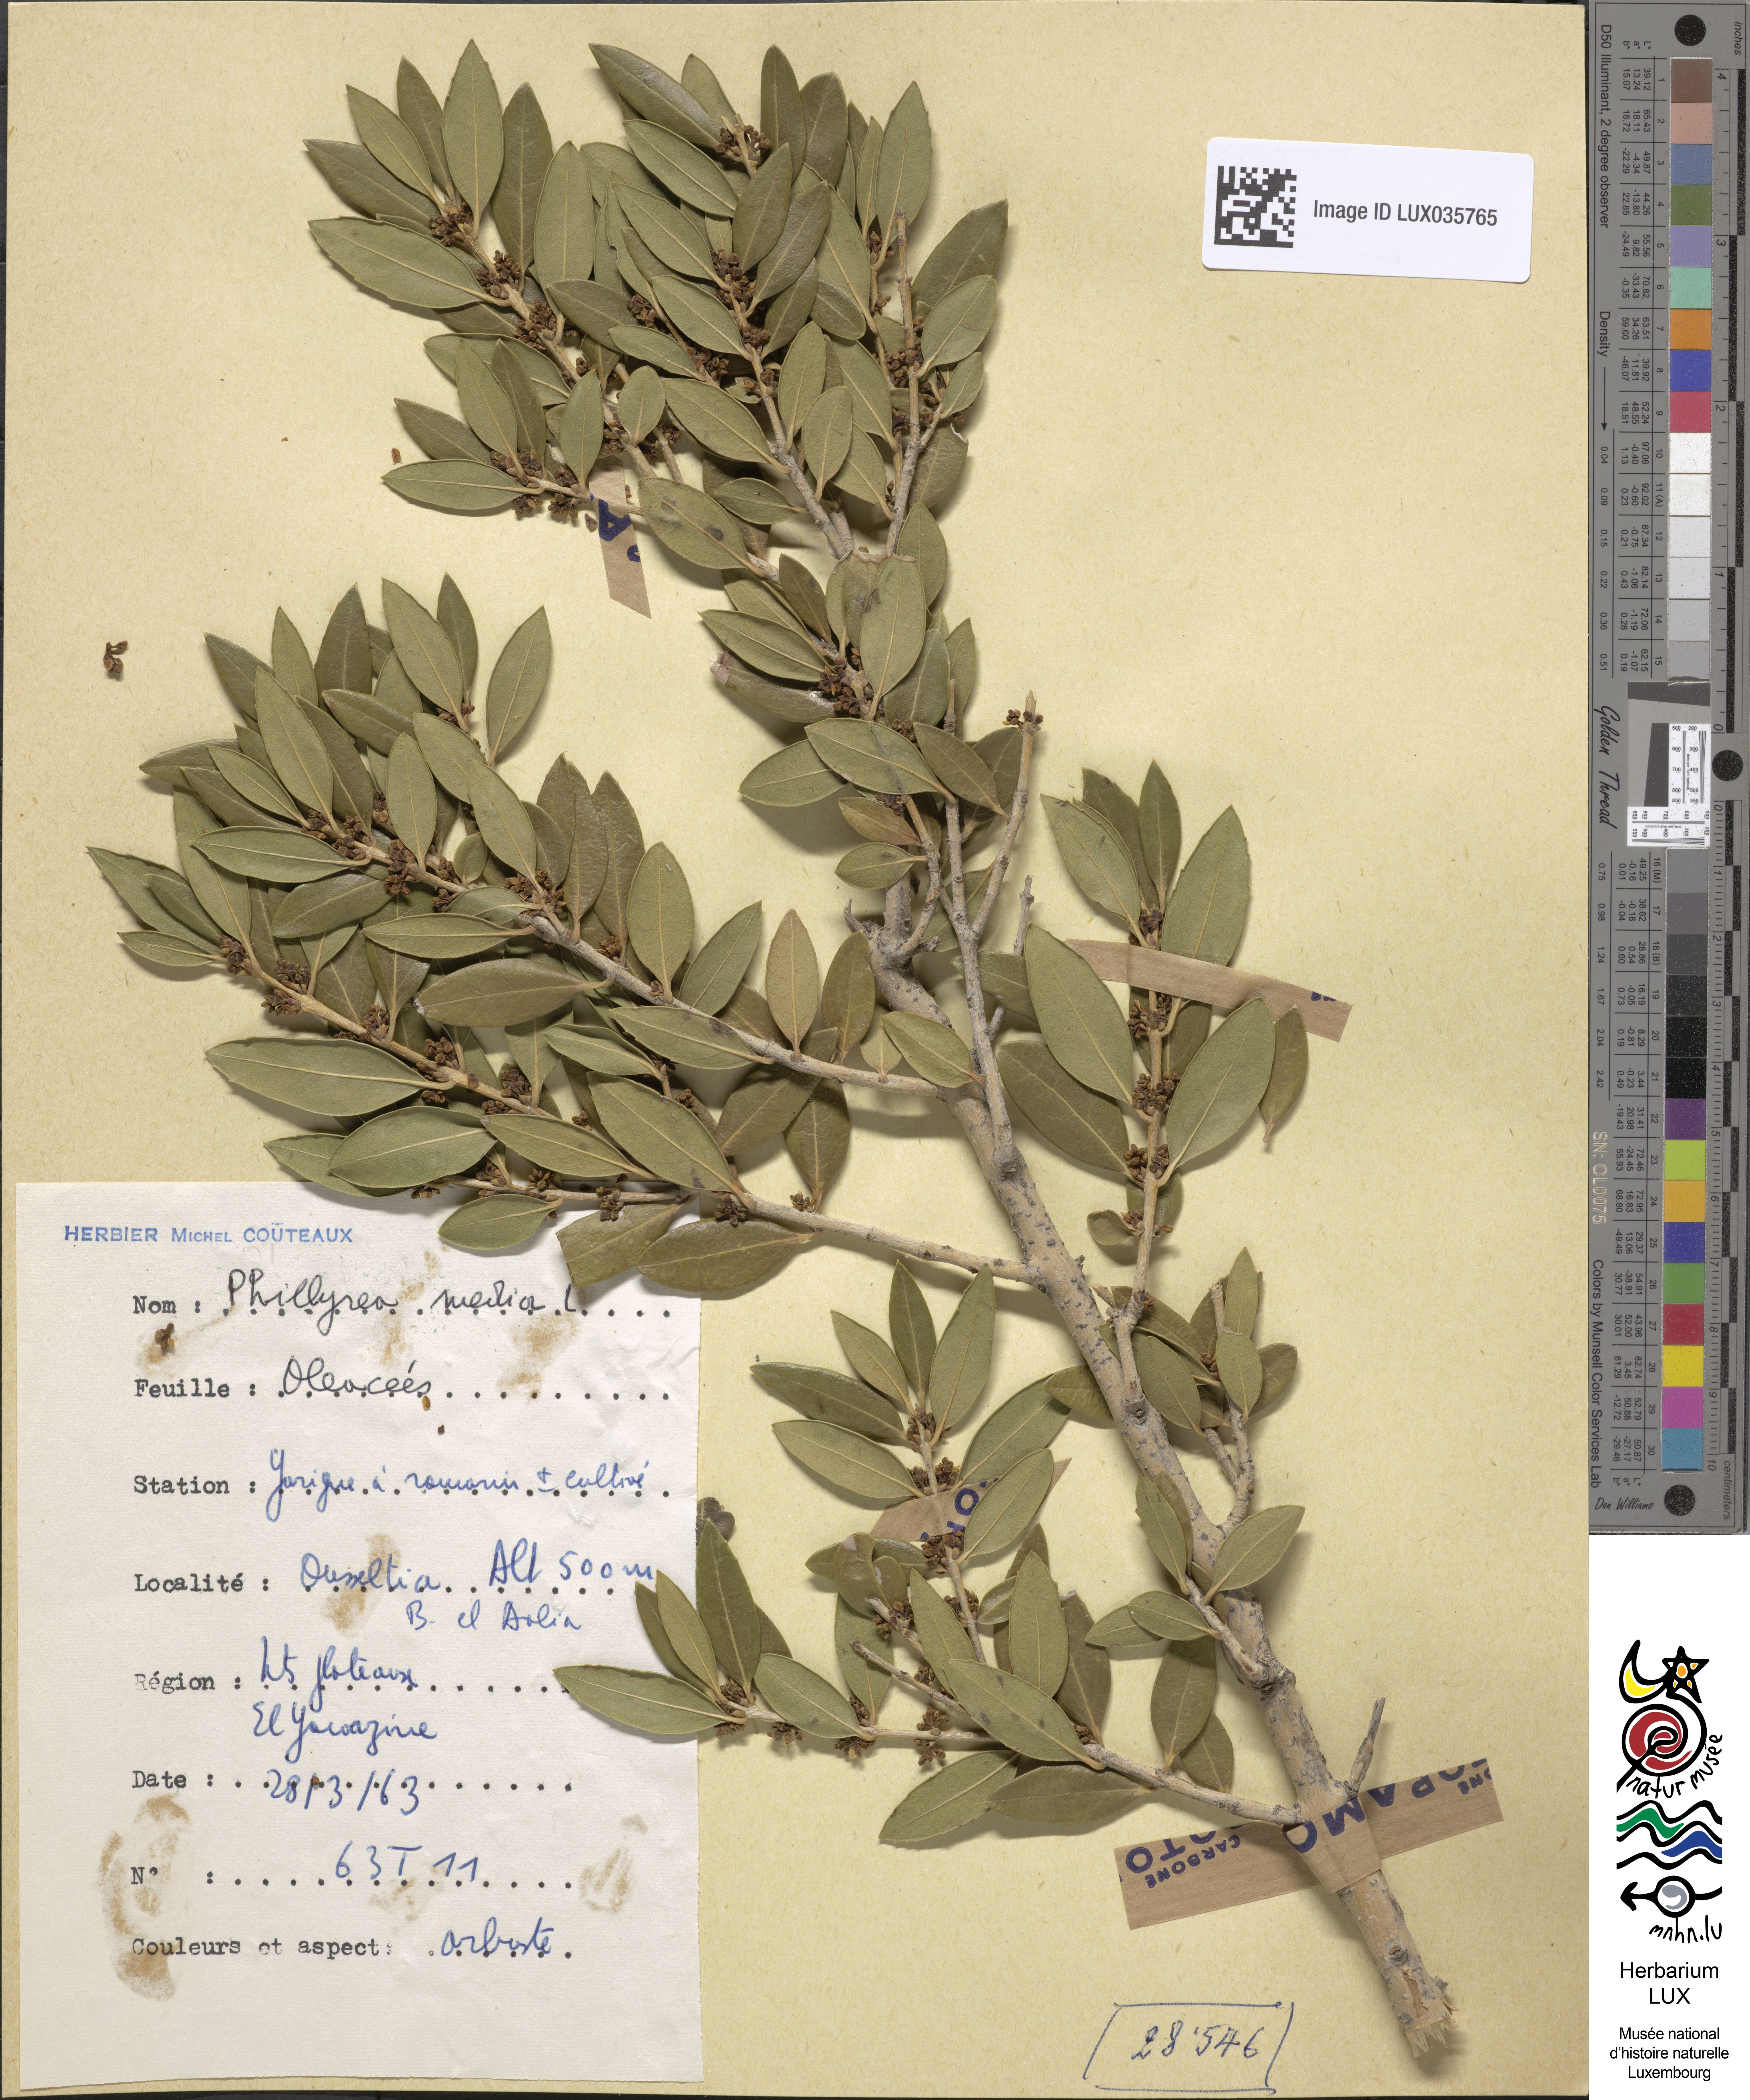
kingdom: Plantae
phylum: Tracheophyta
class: Magnoliopsida
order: Lamiales
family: Oleaceae
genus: Phillyrea
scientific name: Phillyrea latifolia
